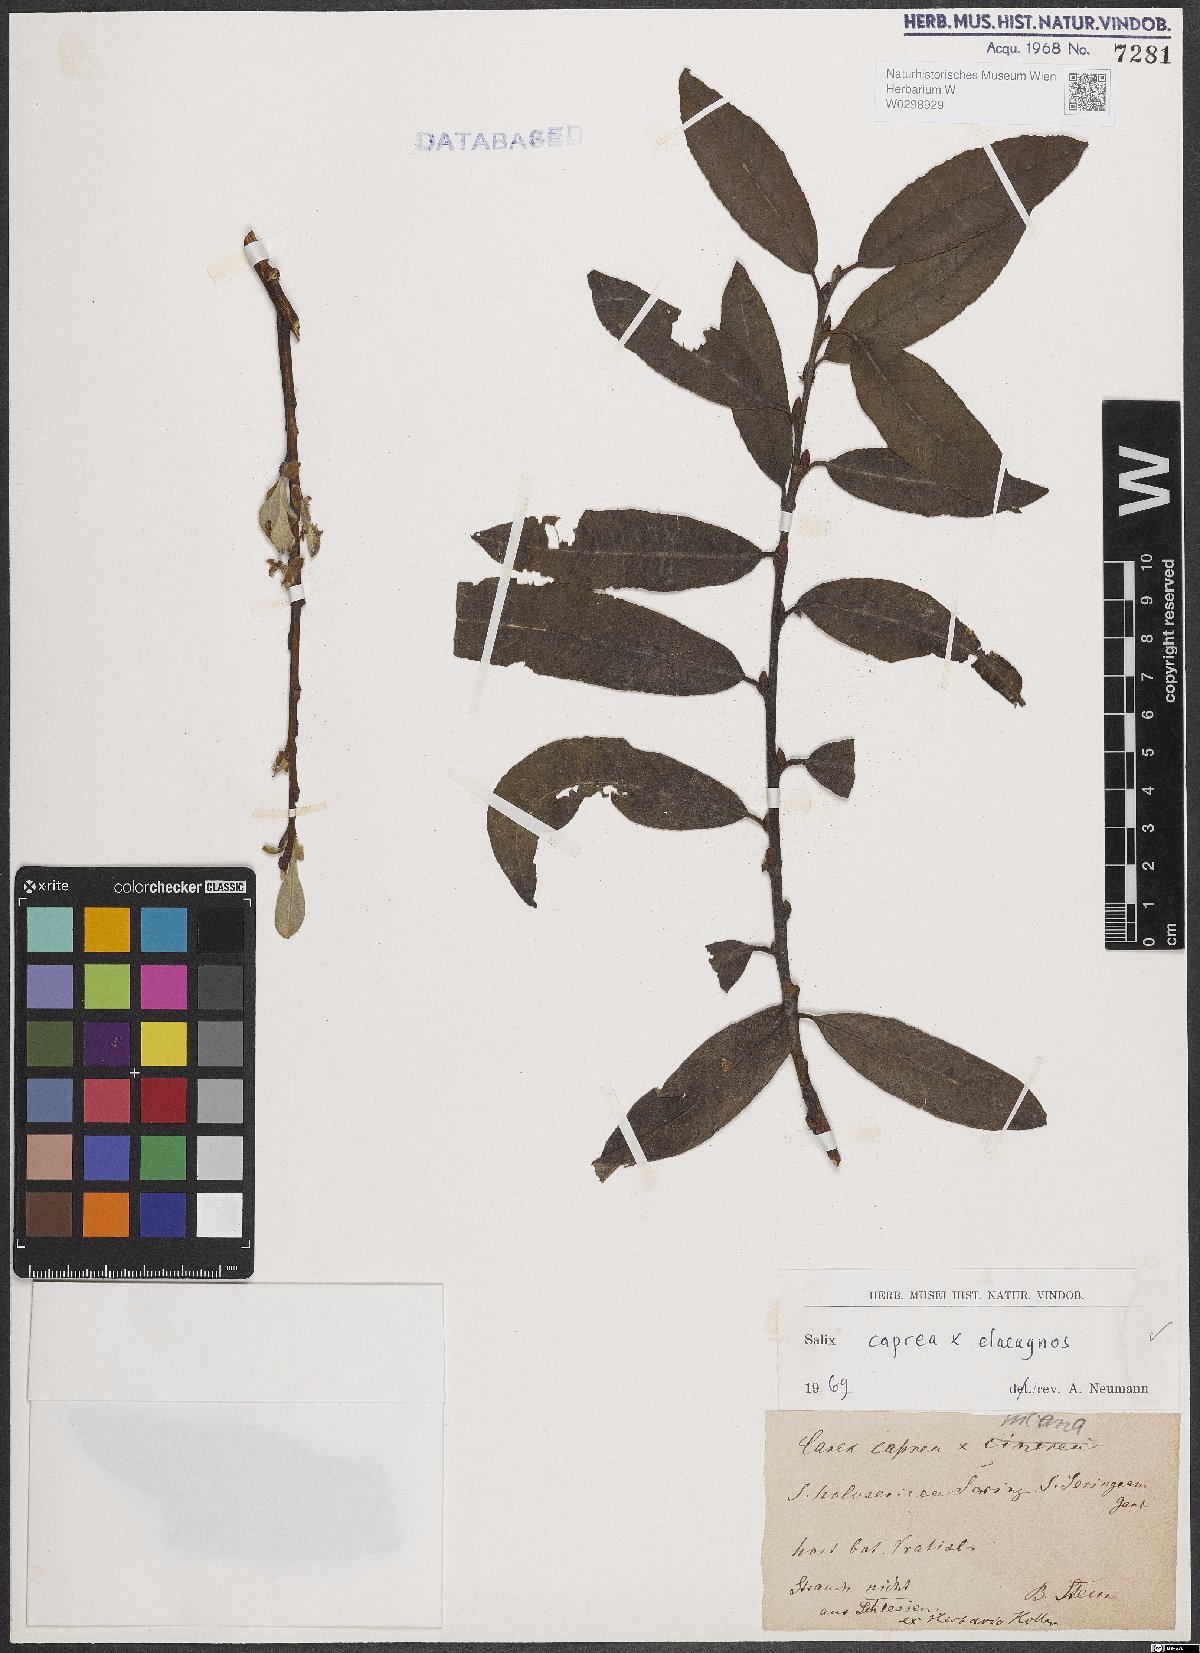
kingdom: Plantae
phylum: Tracheophyta
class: Magnoliopsida
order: Malpighiales
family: Salicaceae
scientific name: Salicaceae
